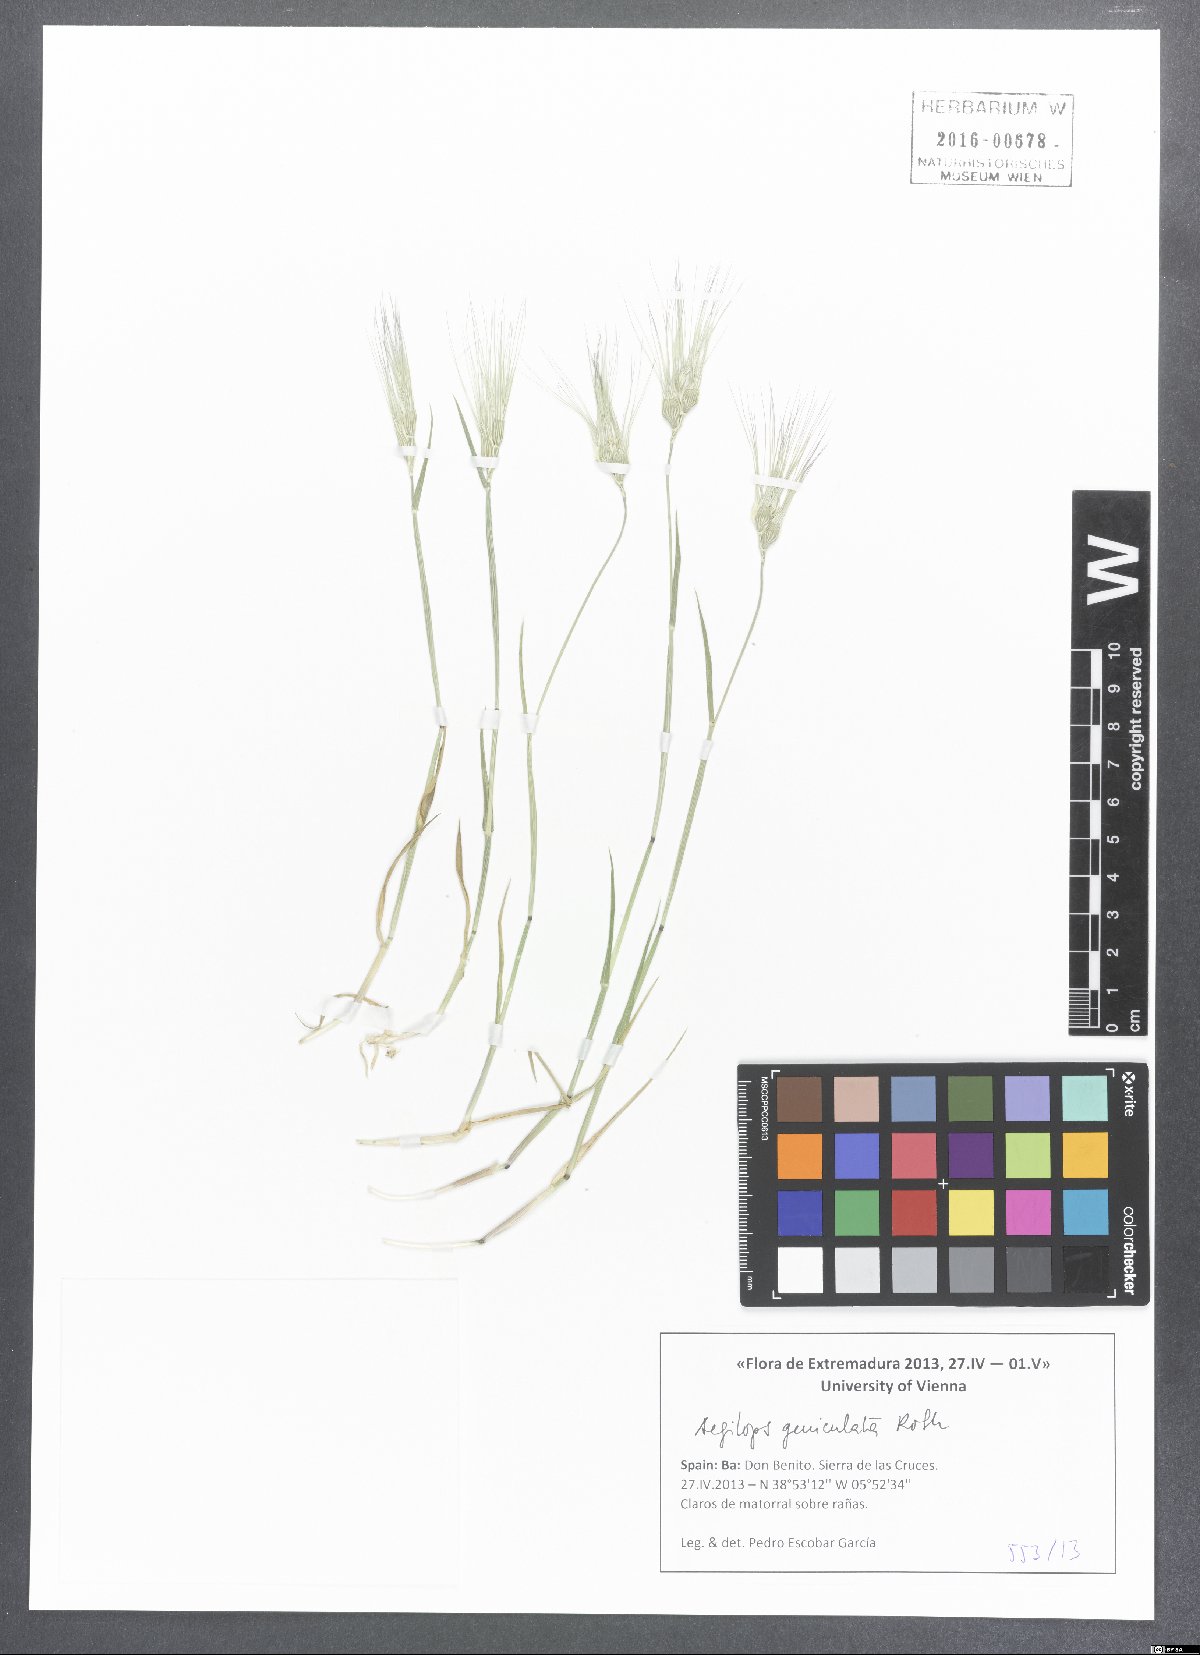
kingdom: Plantae
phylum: Tracheophyta
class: Liliopsida
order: Poales
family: Poaceae
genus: Aegilops
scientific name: Aegilops geniculata
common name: Ovate goat grass
